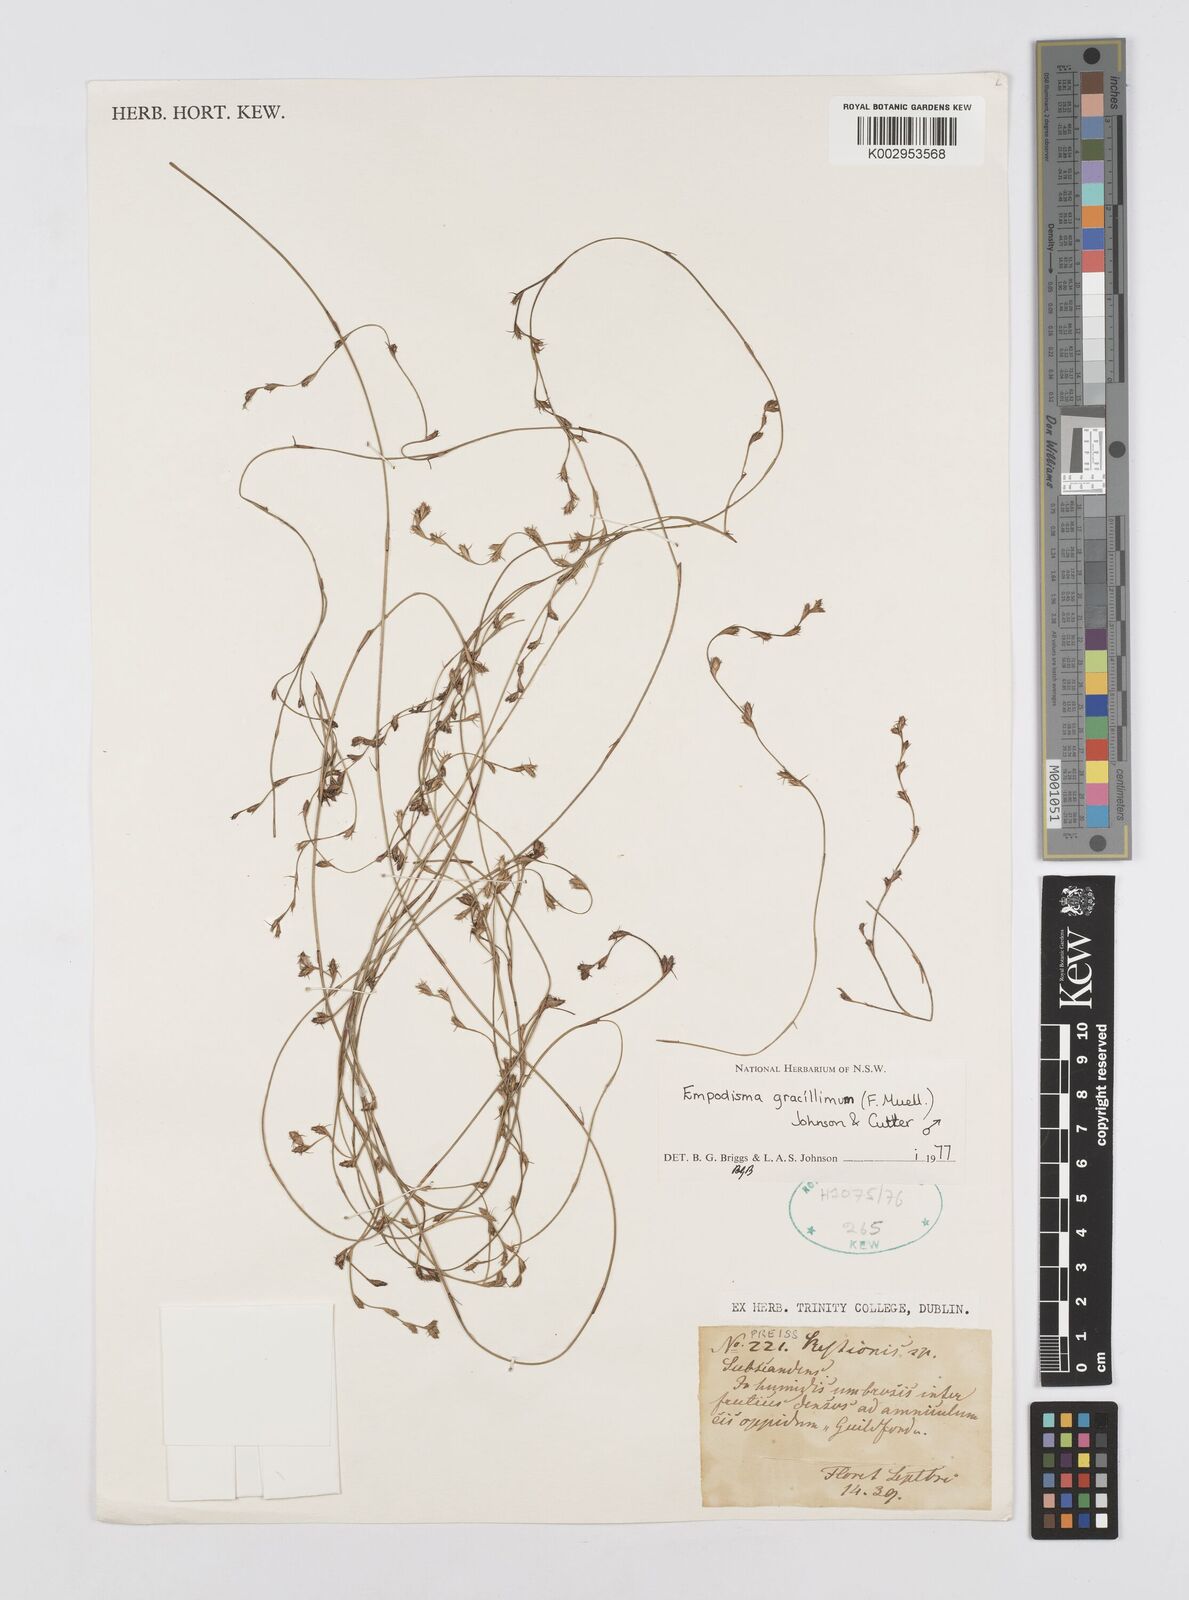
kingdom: Plantae
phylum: Tracheophyta
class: Liliopsida
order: Poales
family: Restionaceae
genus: Empodisma
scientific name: Empodisma gracillimum
